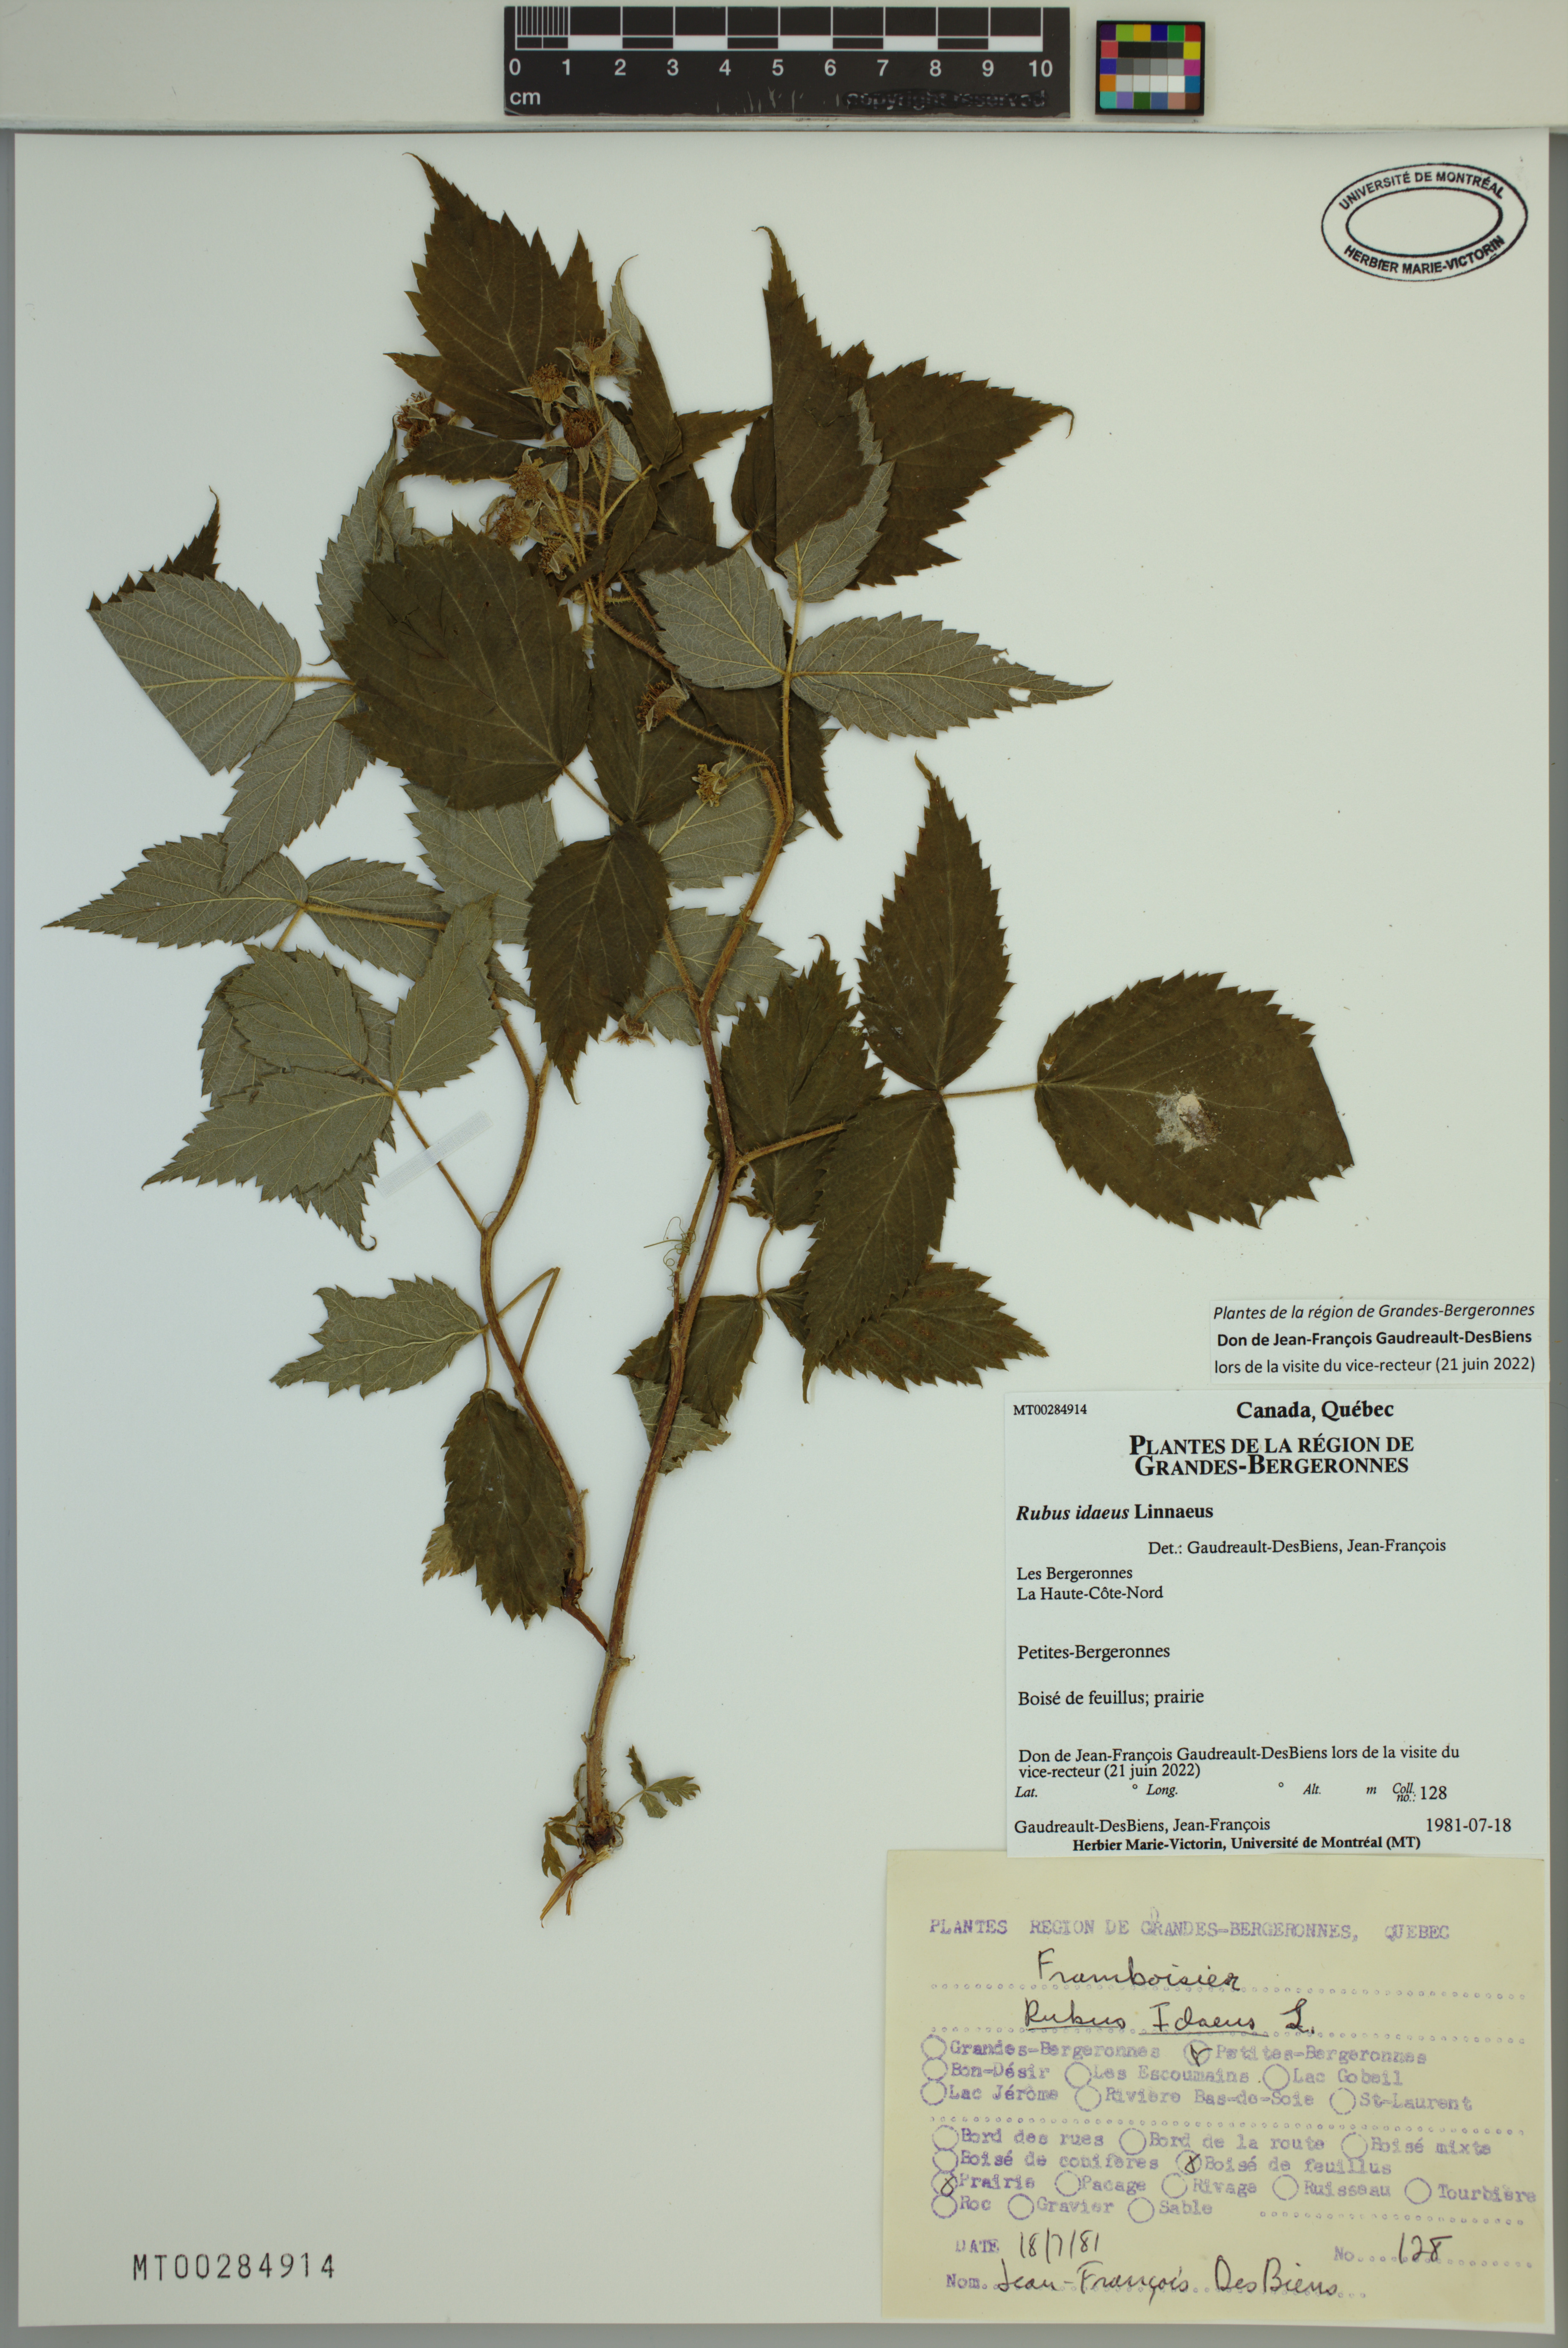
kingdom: Plantae
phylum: Tracheophyta
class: Magnoliopsida
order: Rosales
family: Rosaceae
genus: Rubus
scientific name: Rubus idaeus
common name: Raspberry
